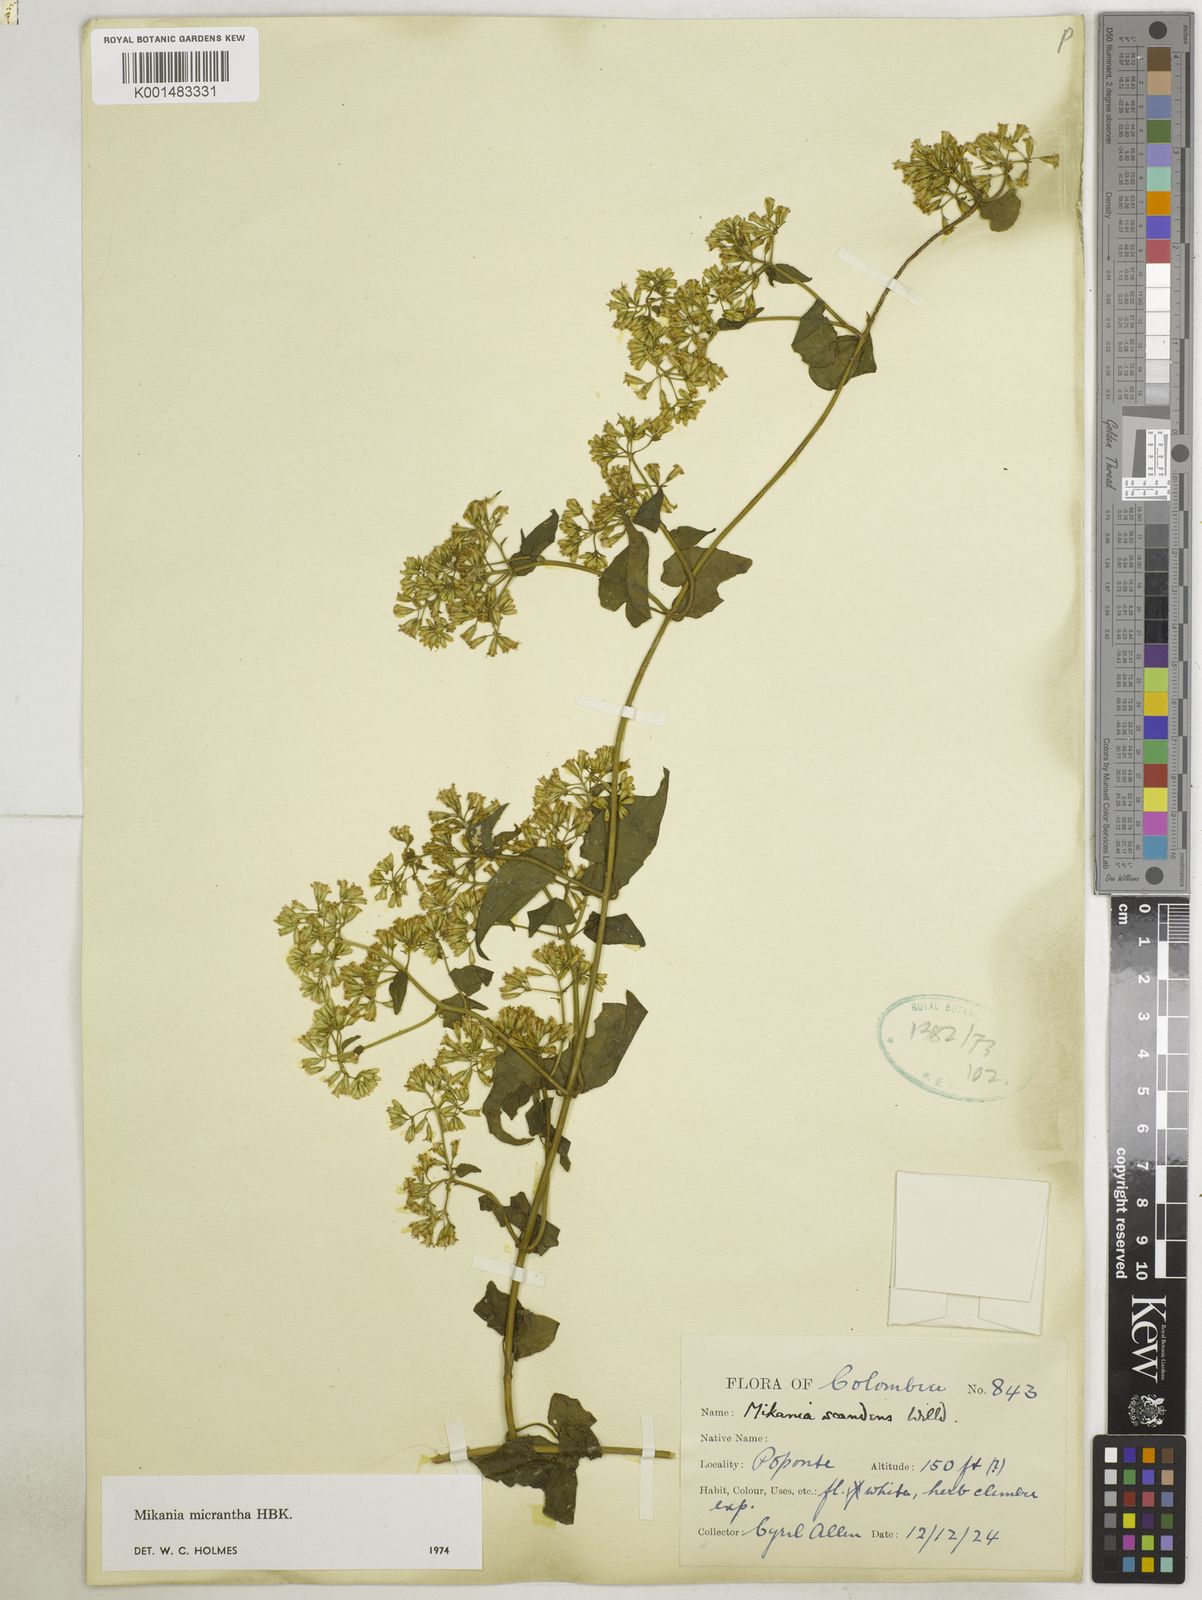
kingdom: Plantae
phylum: Tracheophyta
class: Magnoliopsida
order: Asterales
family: Asteraceae
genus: Mikania
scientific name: Mikania micrantha
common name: Mile-a-minute
